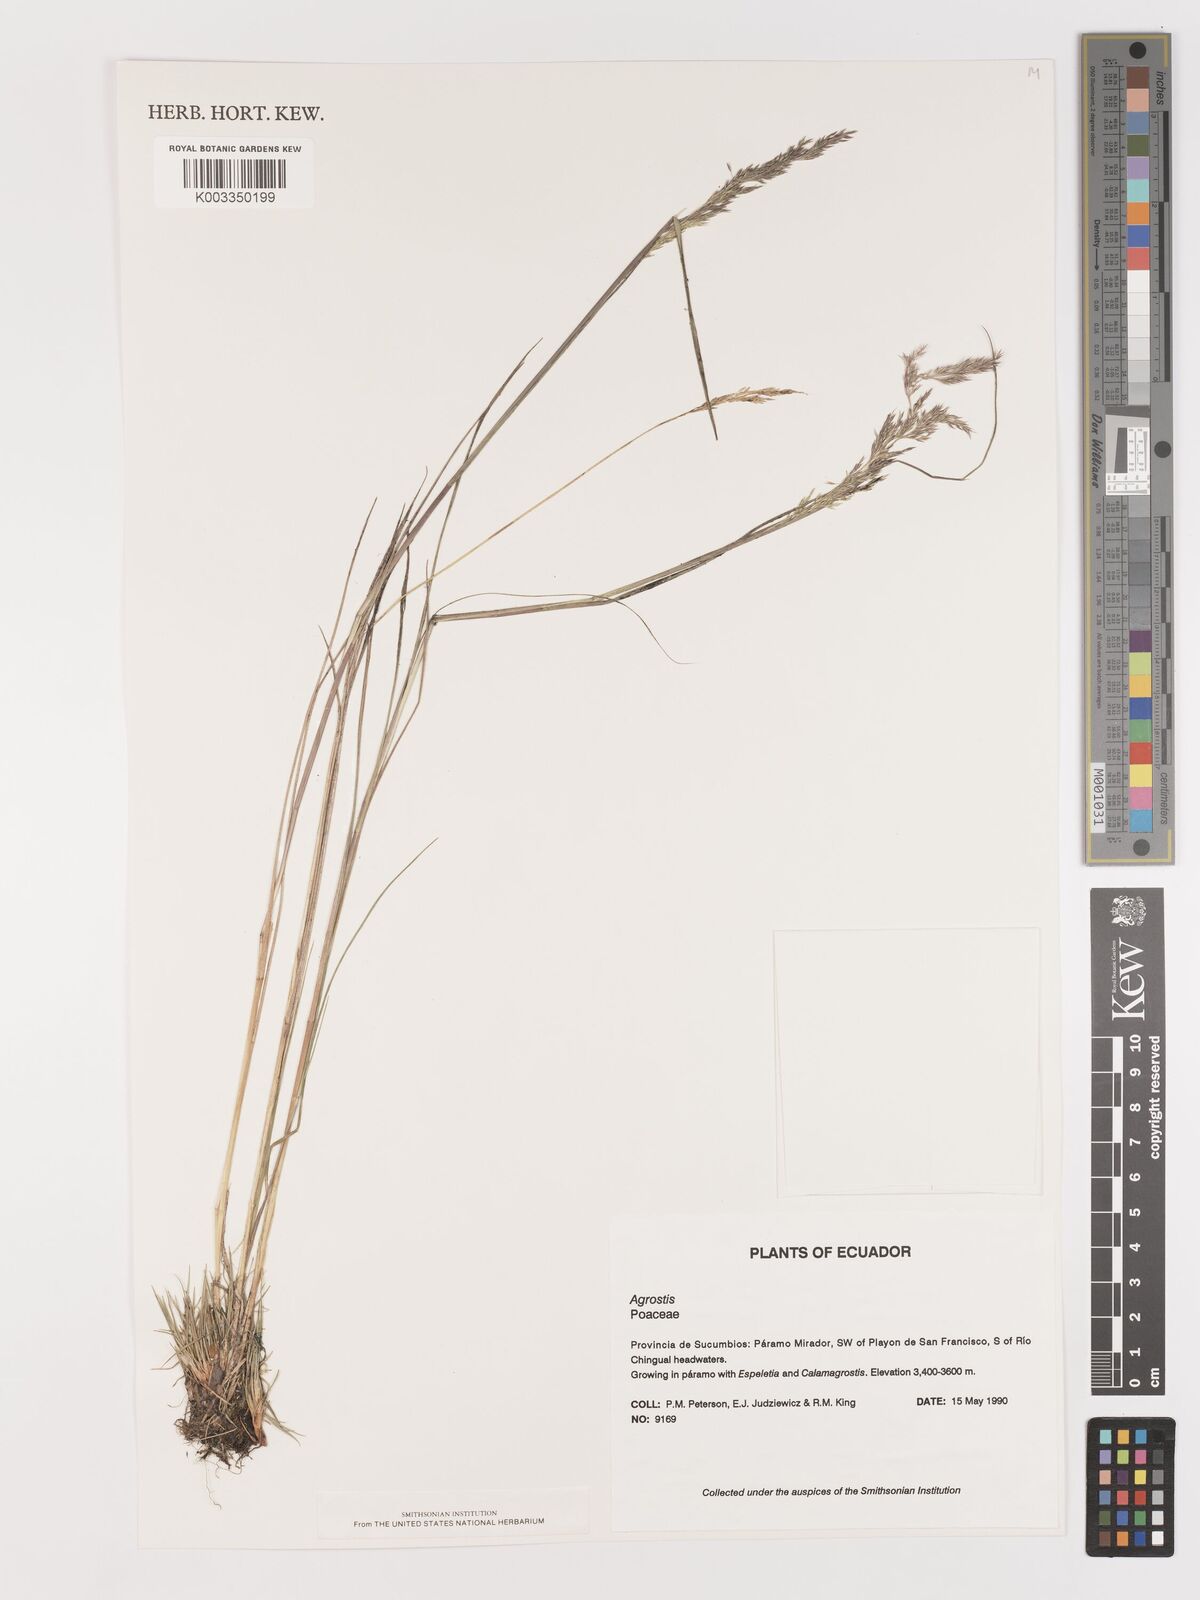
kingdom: Plantae
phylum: Tracheophyta
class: Liliopsida
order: Poales
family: Poaceae
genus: Agrostis
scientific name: Agrostis
